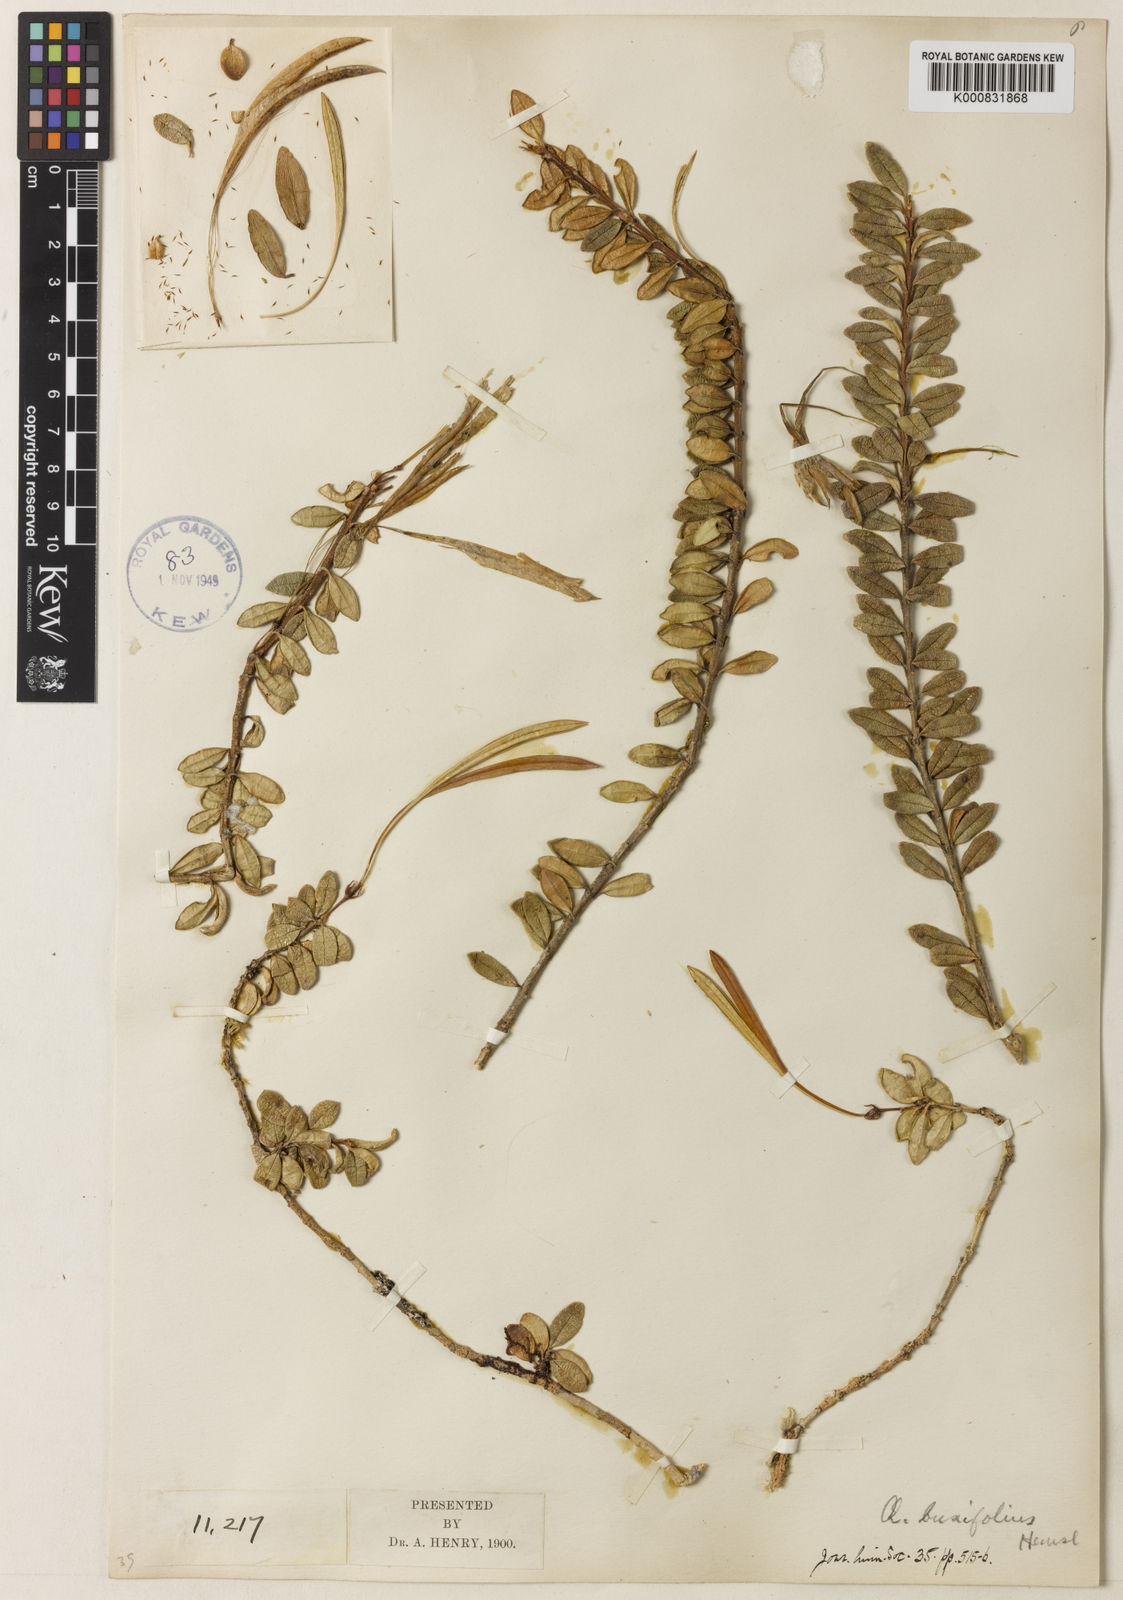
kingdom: Plantae
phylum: Tracheophyta
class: Magnoliopsida
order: Lamiales
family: Gesneriaceae
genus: Aeschynanthus
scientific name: Aeschynanthus buxifolius
